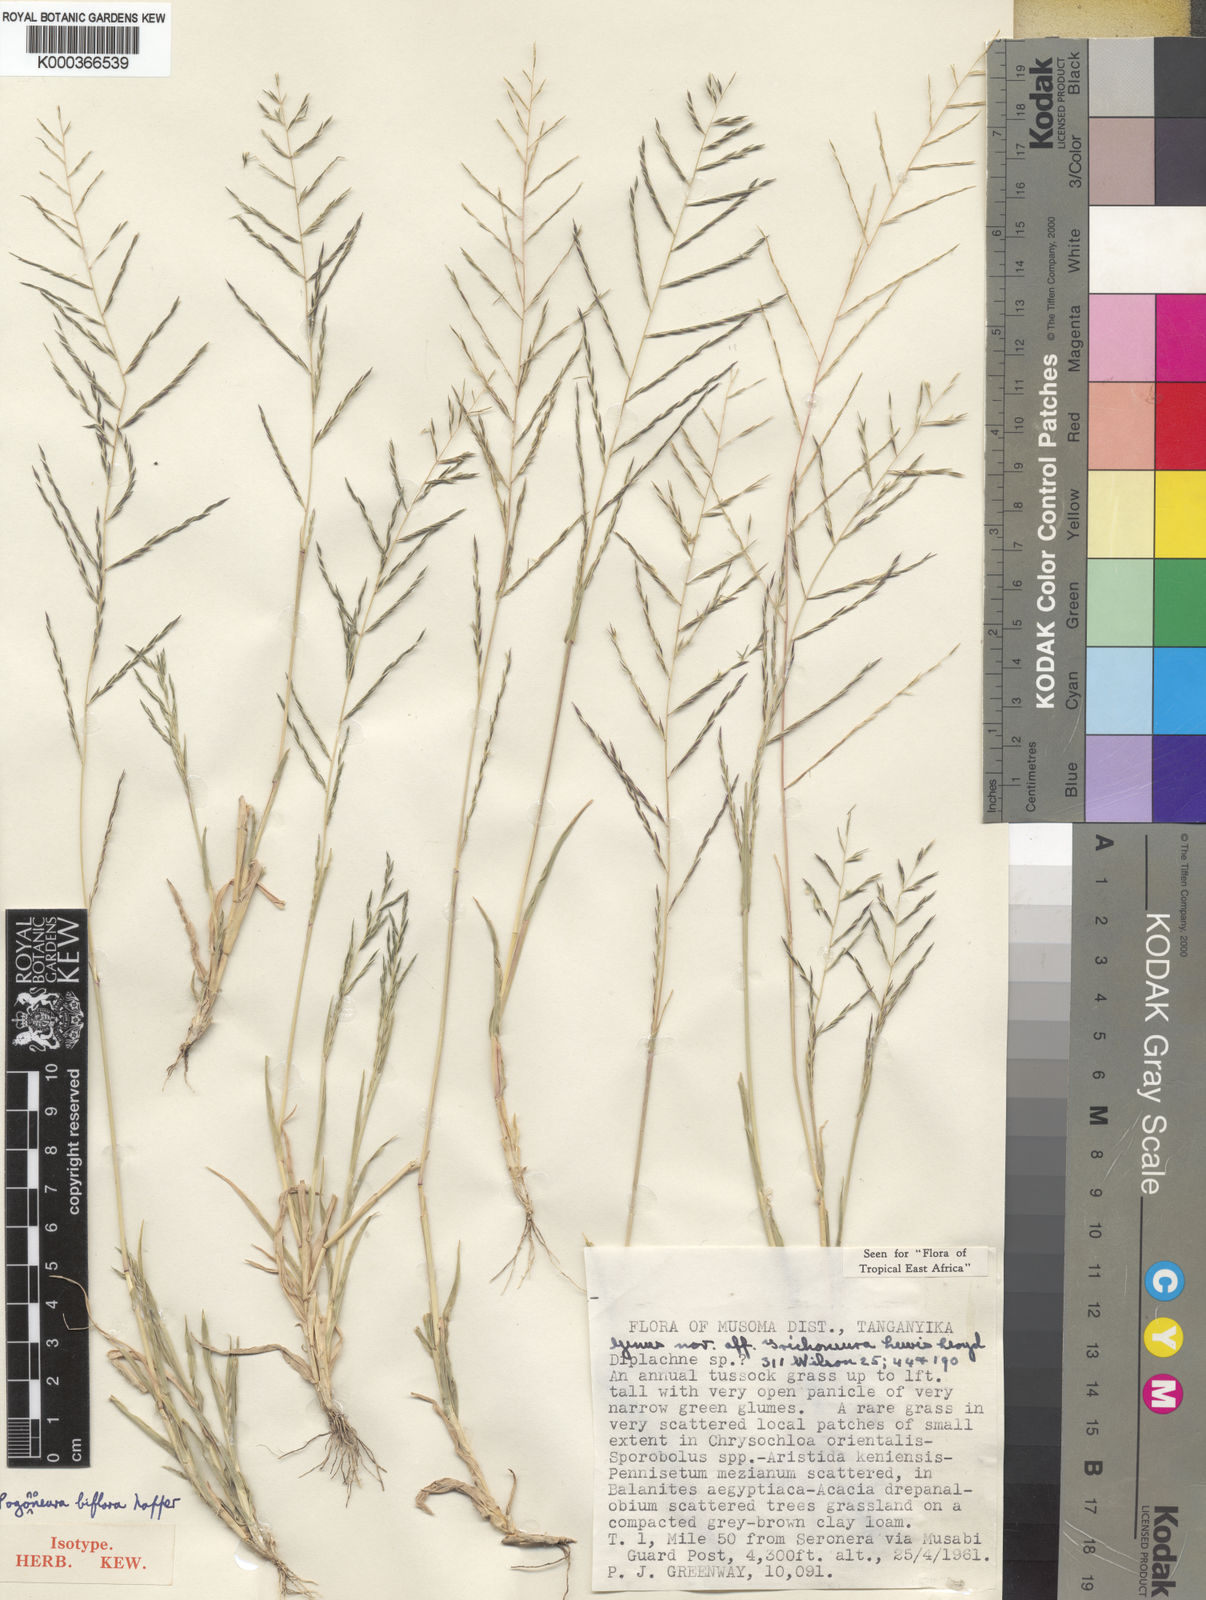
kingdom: Plantae
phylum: Tracheophyta
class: Liliopsida
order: Poales
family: Poaceae
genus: Pogononeura
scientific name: Pogononeura biflora
